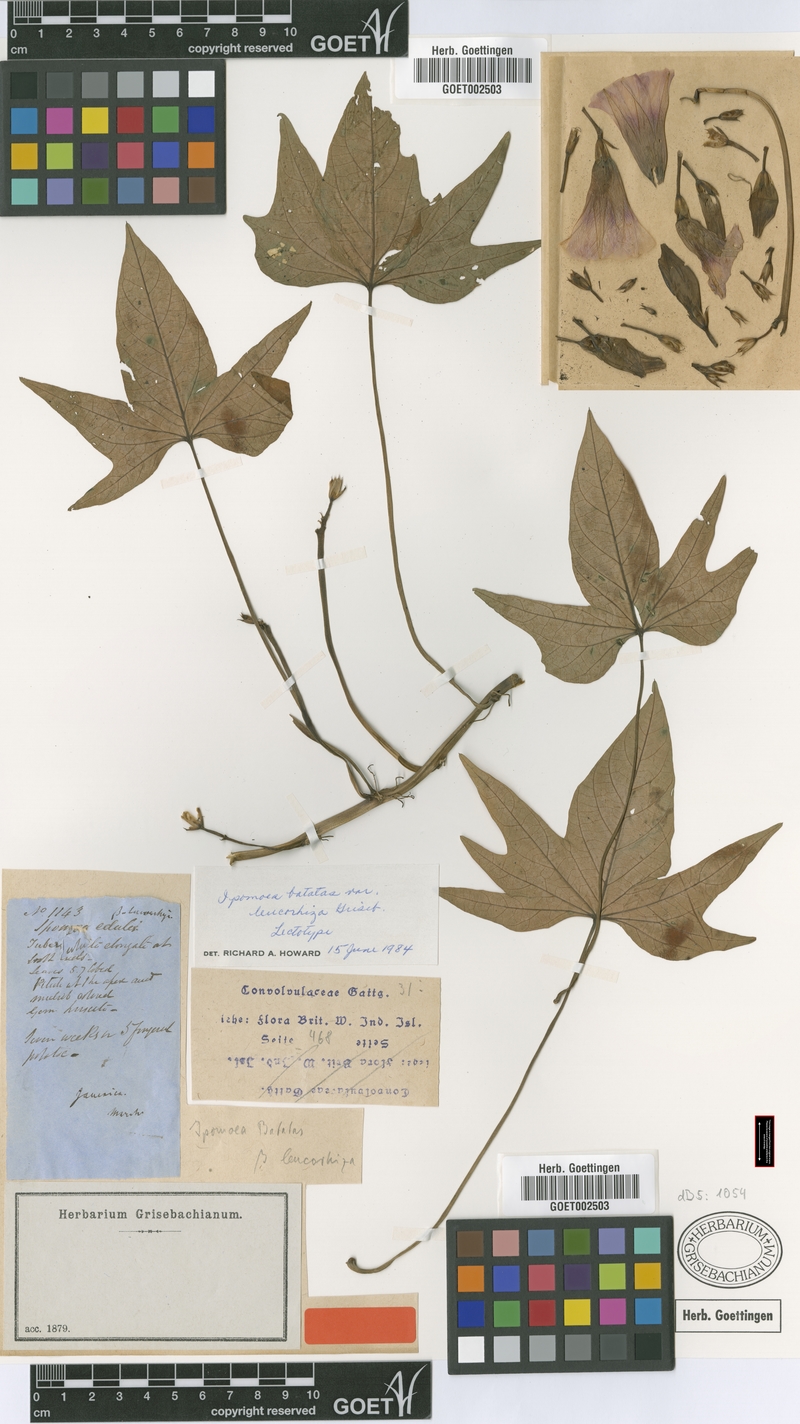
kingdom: Plantae
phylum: Tracheophyta
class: Magnoliopsida
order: Solanales
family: Convolvulaceae
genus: Ipomoea
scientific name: Ipomoea batatas
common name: Sweet-potato
